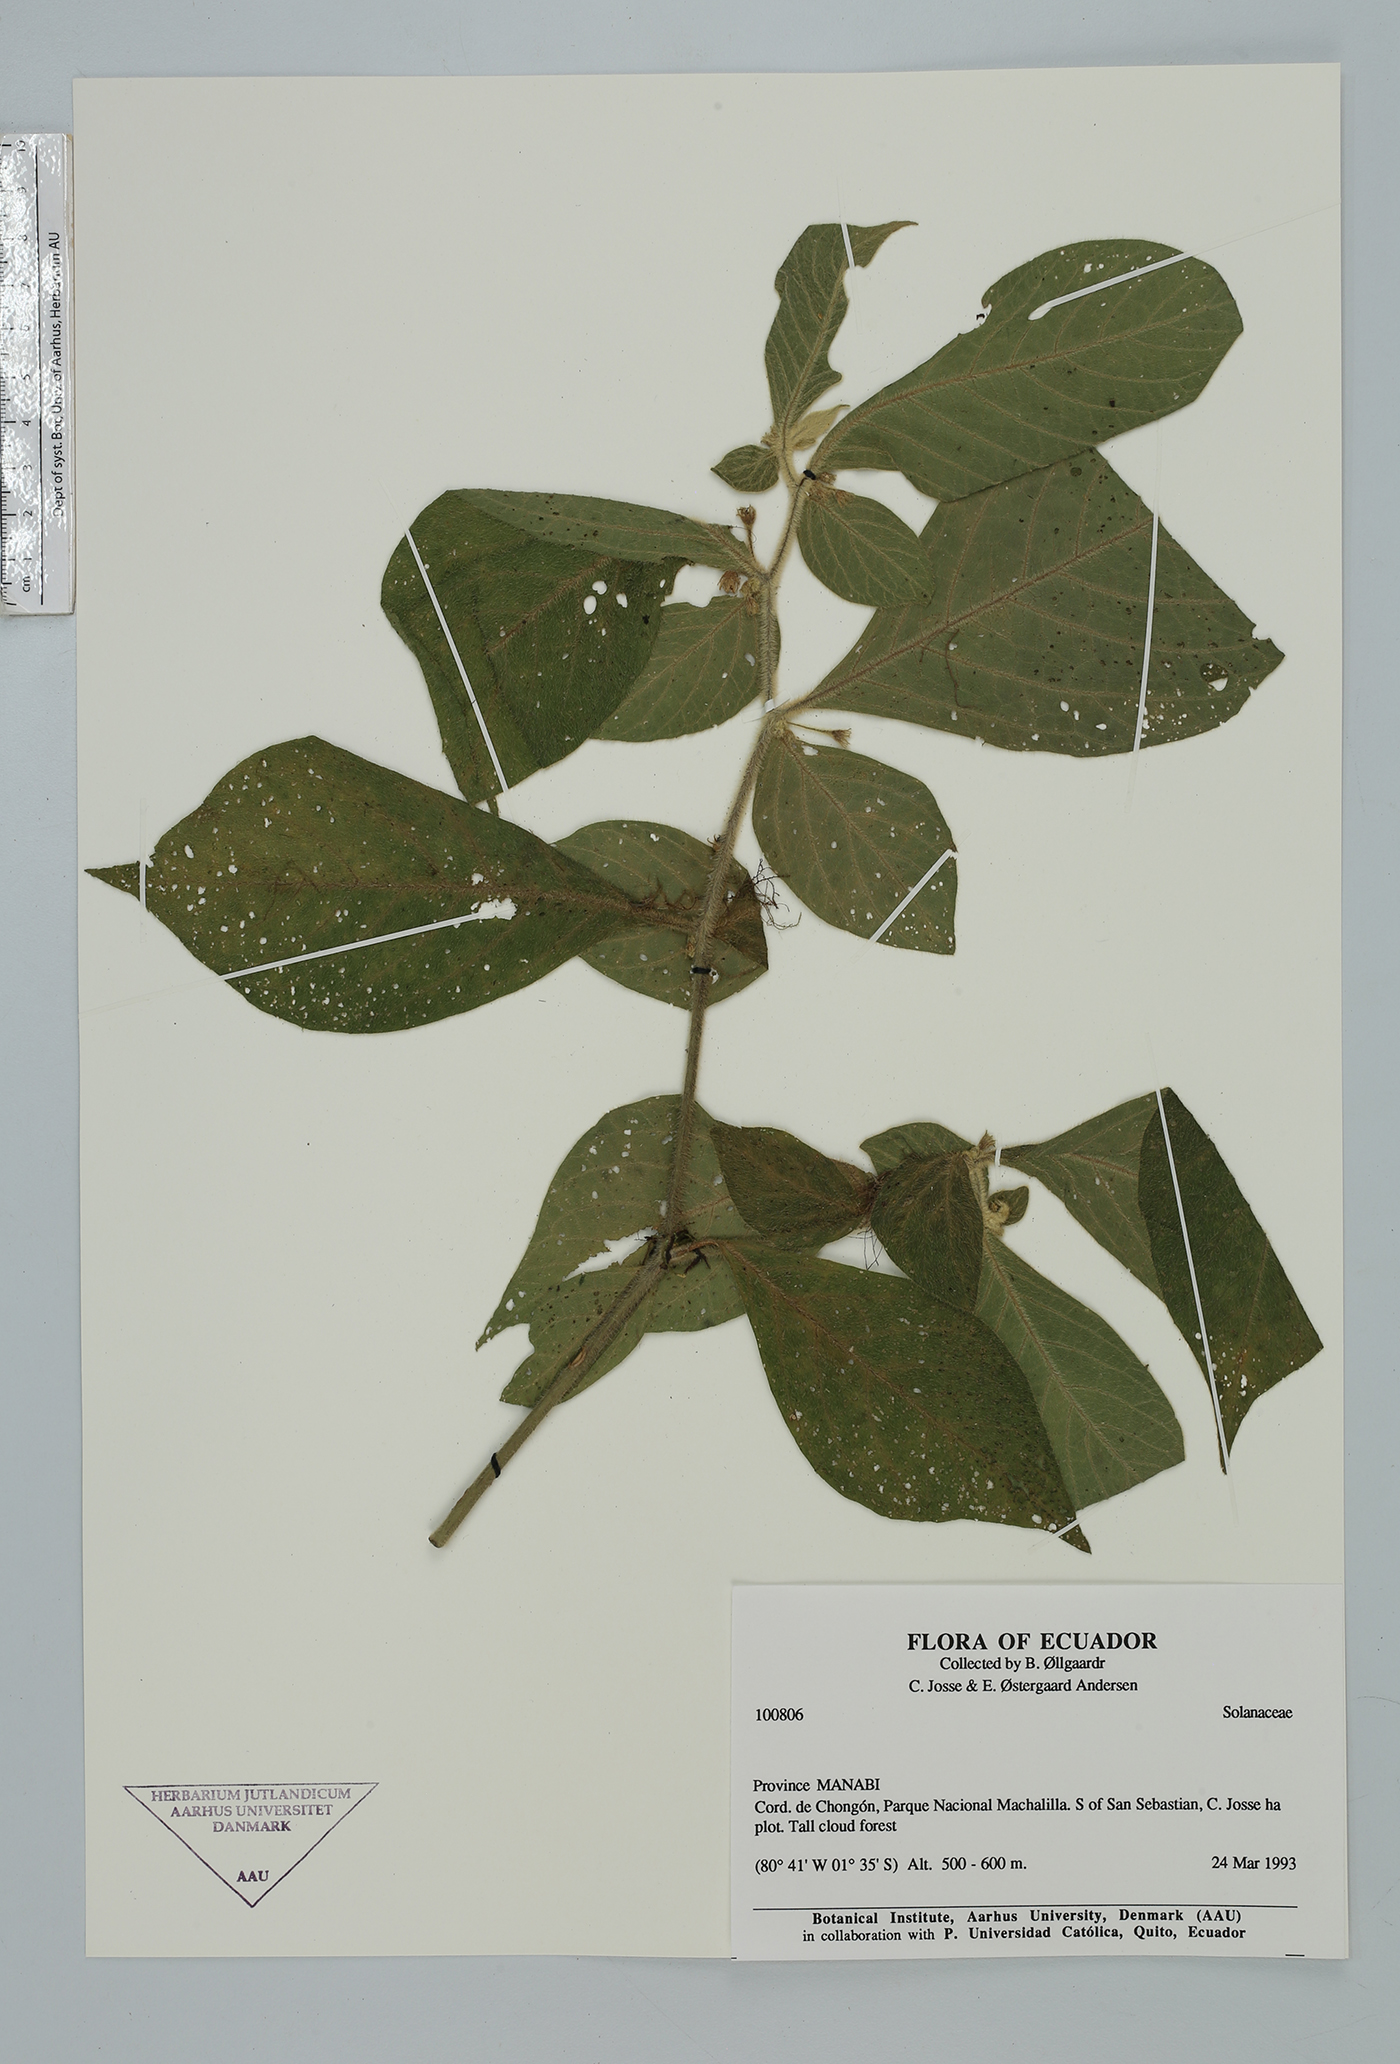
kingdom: Plantae
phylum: Tracheophyta
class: Magnoliopsida
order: Solanales
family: Solanaceae
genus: Lycianthes
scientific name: Lycianthes
